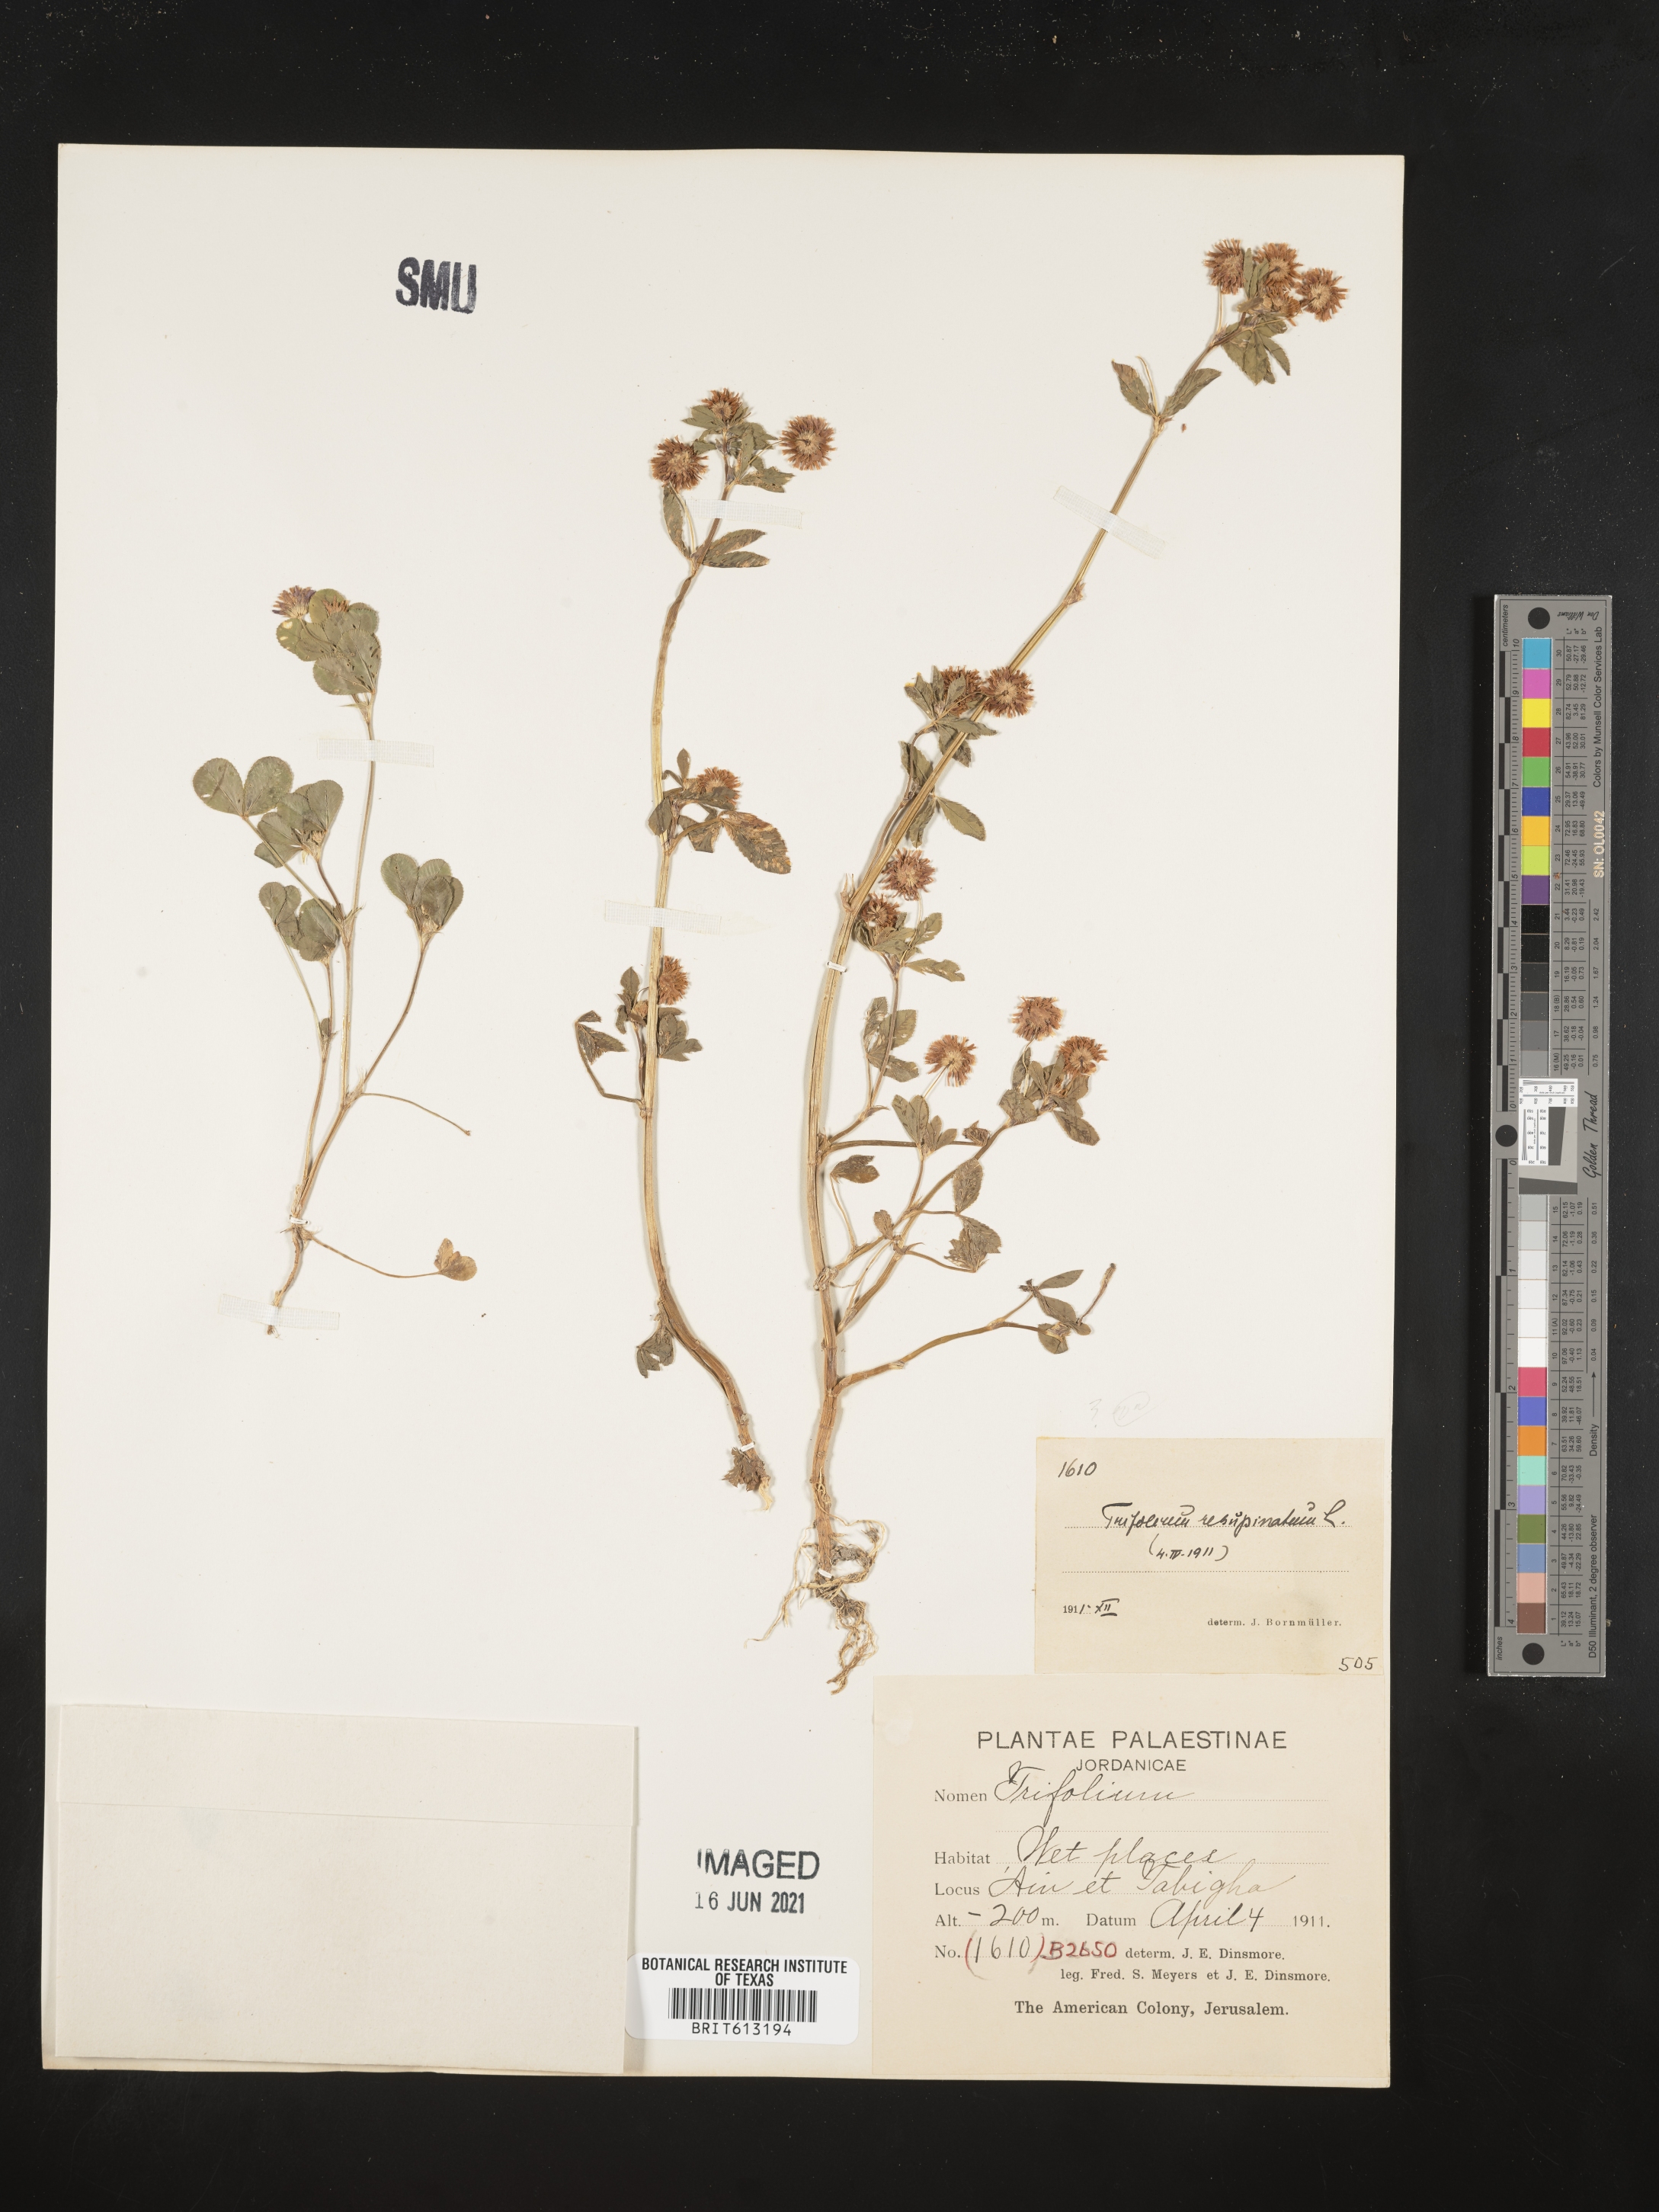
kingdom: Plantae
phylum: Tracheophyta
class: Magnoliopsida
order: Fabales
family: Fabaceae
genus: Trifolium
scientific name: Trifolium resupinatum
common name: Reversed clover
